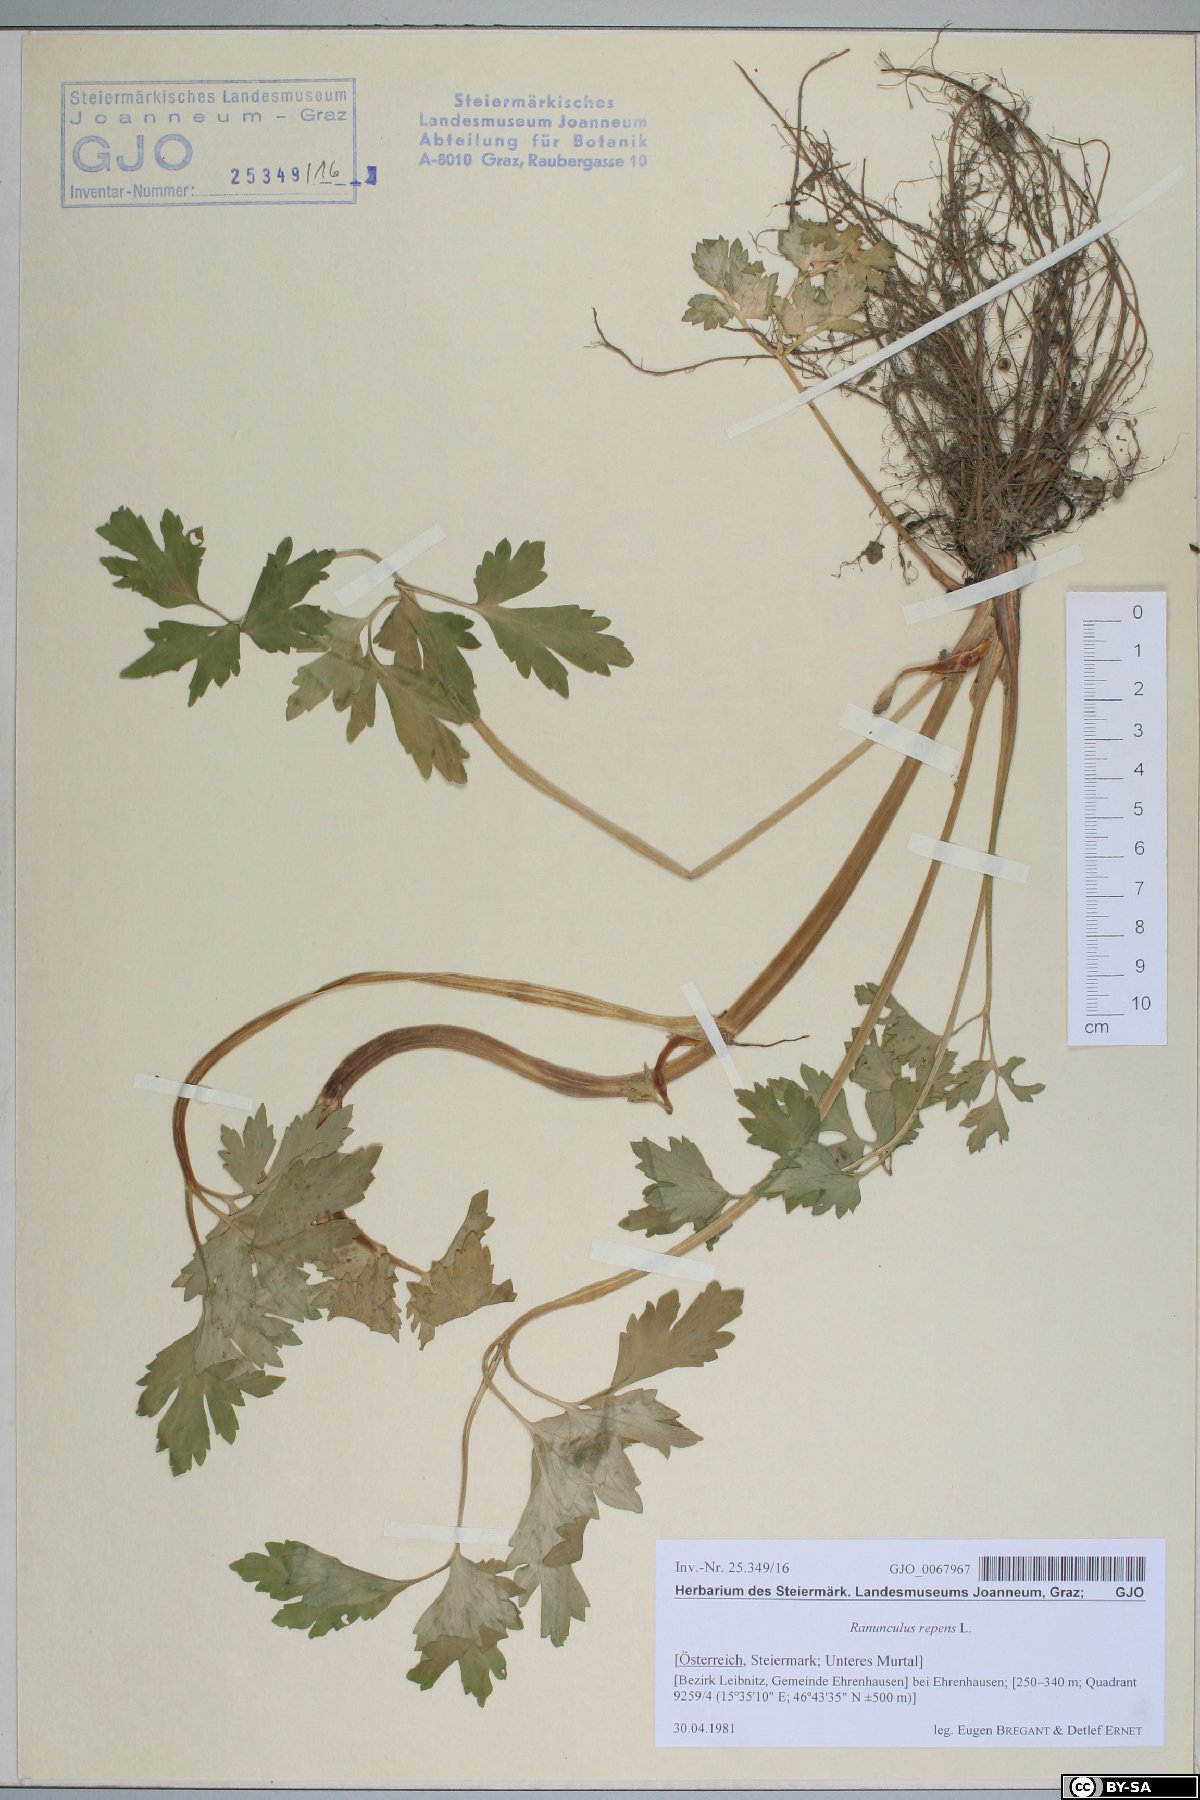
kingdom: Plantae
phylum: Tracheophyta
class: Magnoliopsida
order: Ranunculales
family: Ranunculaceae
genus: Ranunculus
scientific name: Ranunculus repens
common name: Creeping buttercup
